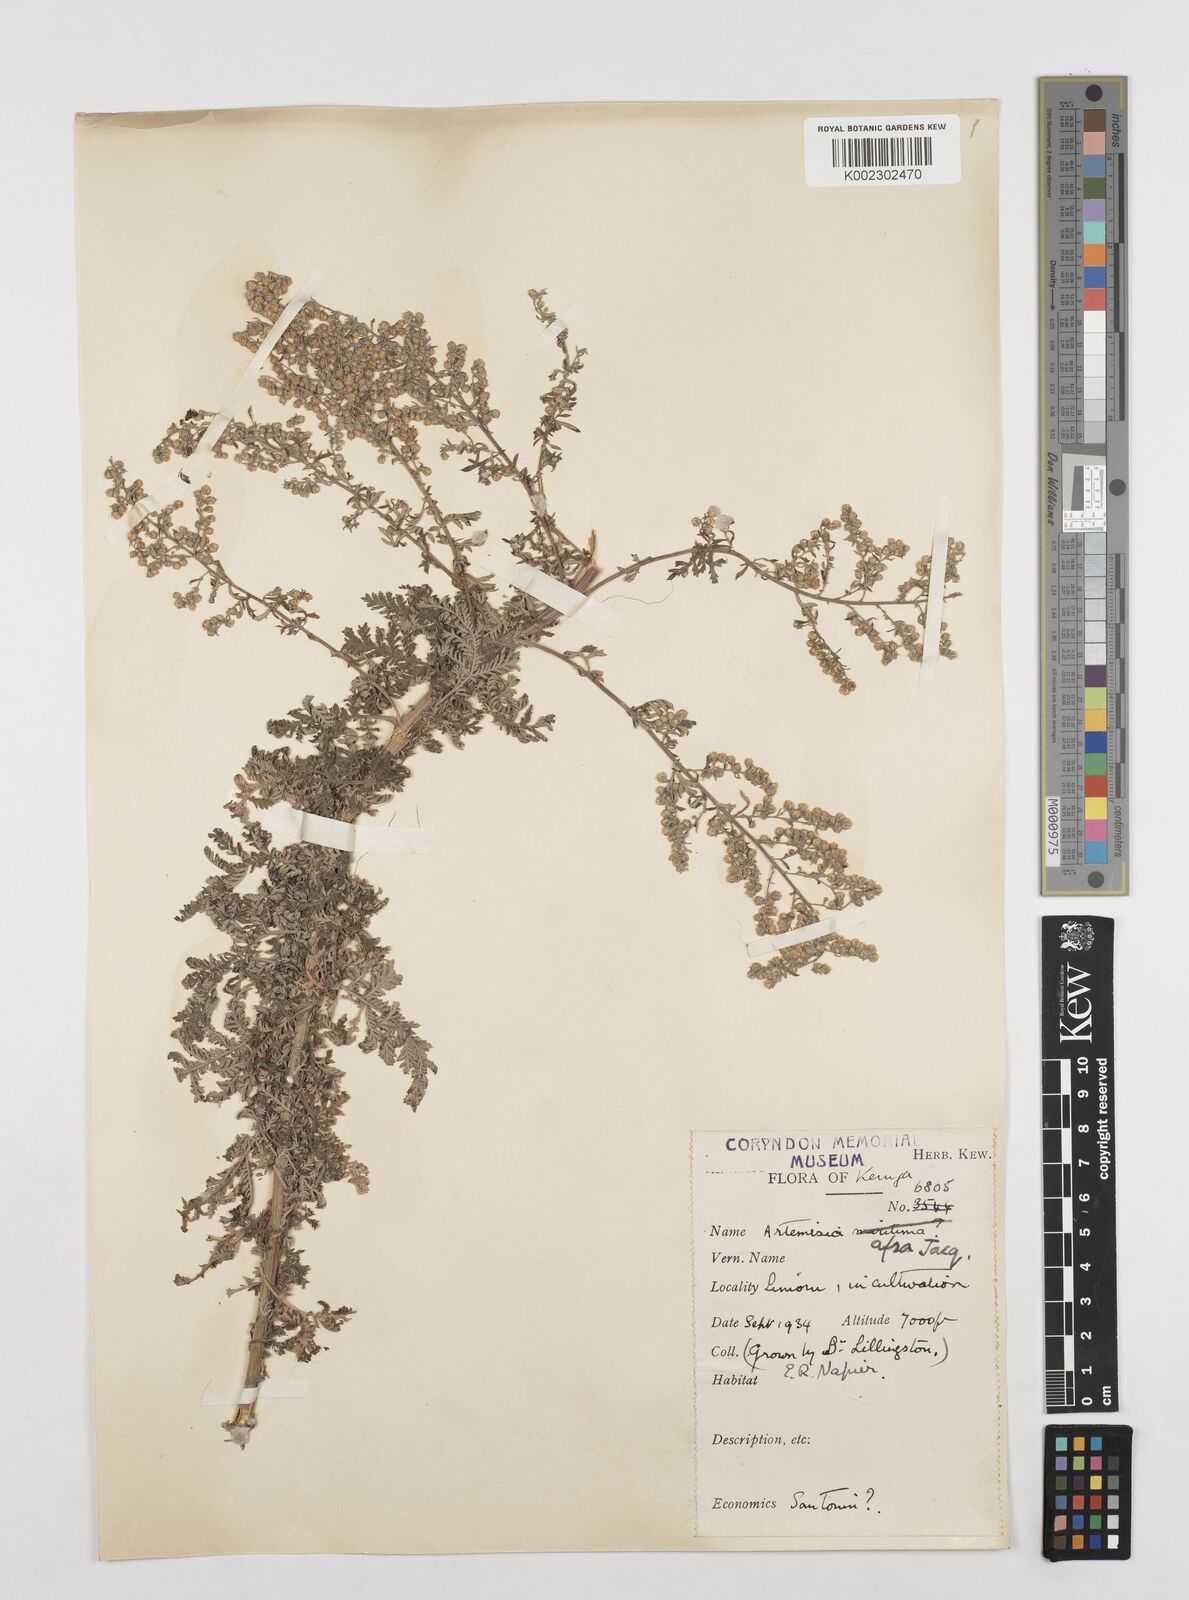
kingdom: Plantae
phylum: Tracheophyta
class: Magnoliopsida
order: Asterales
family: Asteraceae
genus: Artemisia
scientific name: Artemisia afra
